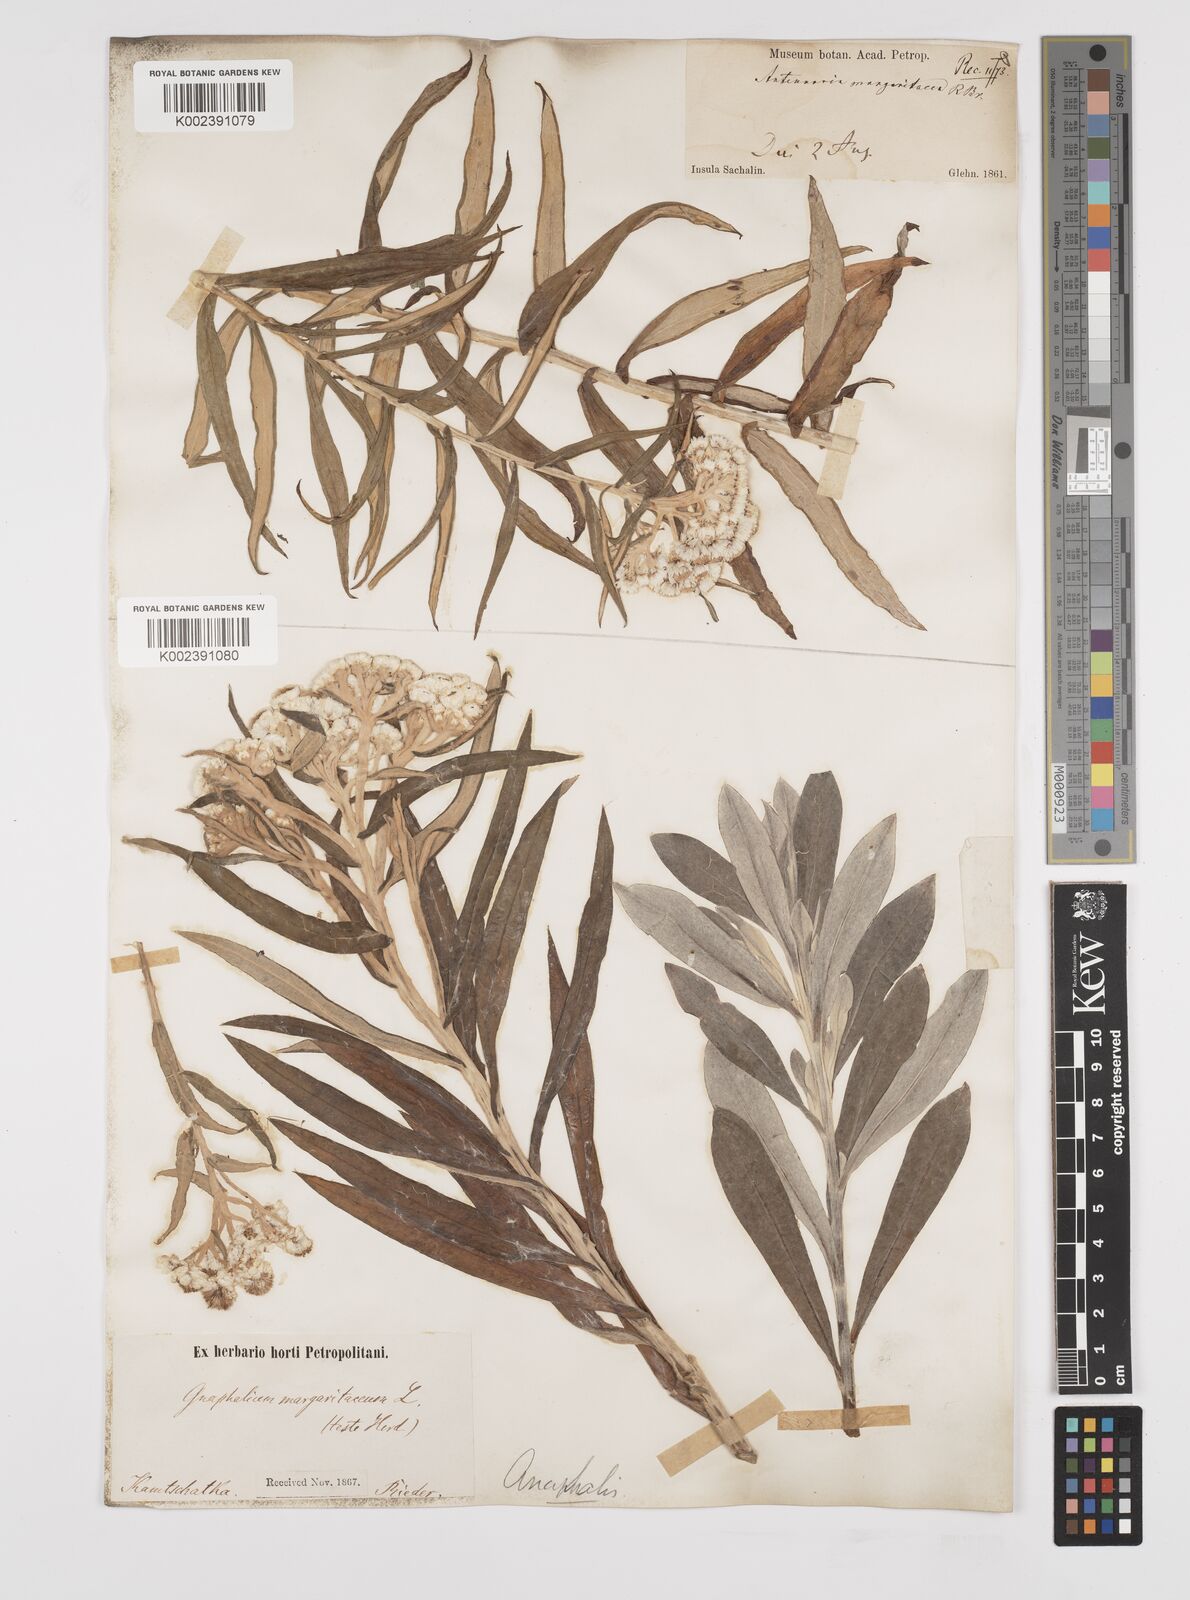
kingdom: Plantae
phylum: Tracheophyta
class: Magnoliopsida
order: Asterales
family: Asteraceae
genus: Anaphalis
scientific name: Anaphalis margaritacea
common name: Pearly everlasting
